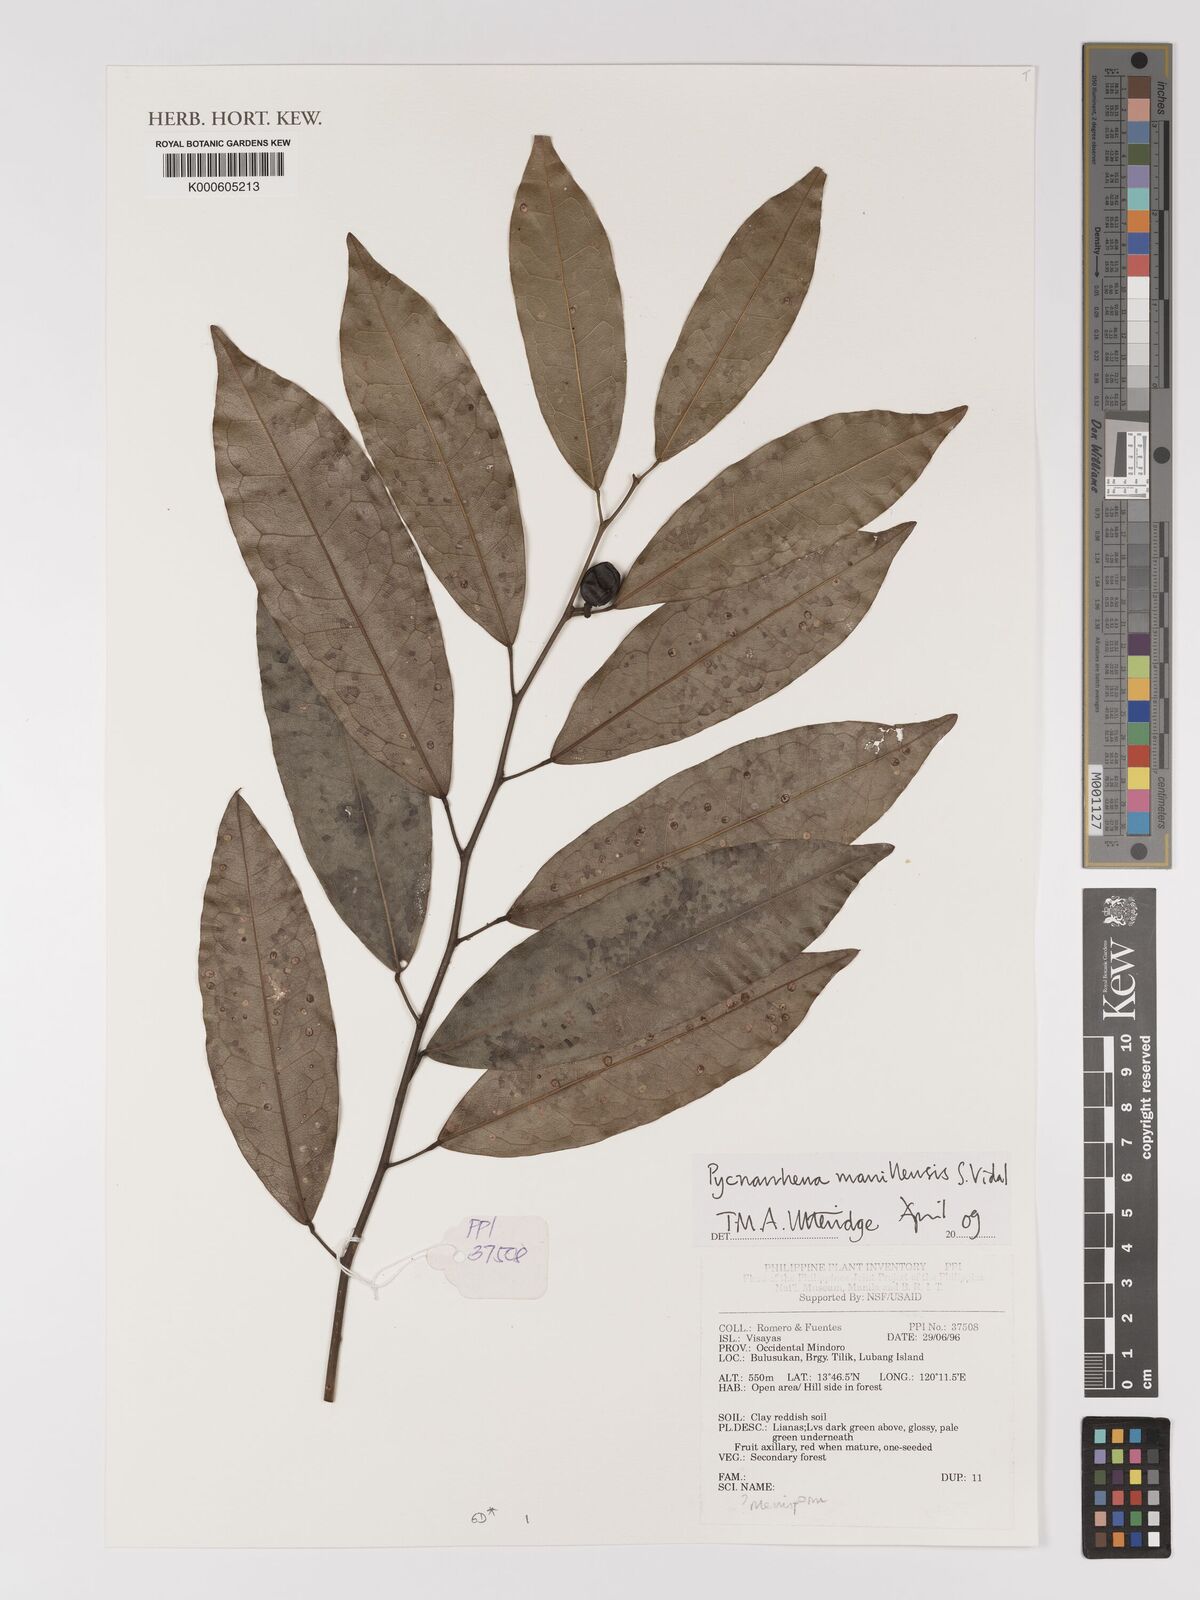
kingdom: Plantae
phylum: Tracheophyta
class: Magnoliopsida
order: Ranunculales
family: Menispermaceae
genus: Pycnarrhena
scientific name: Pycnarrhena manillensis
